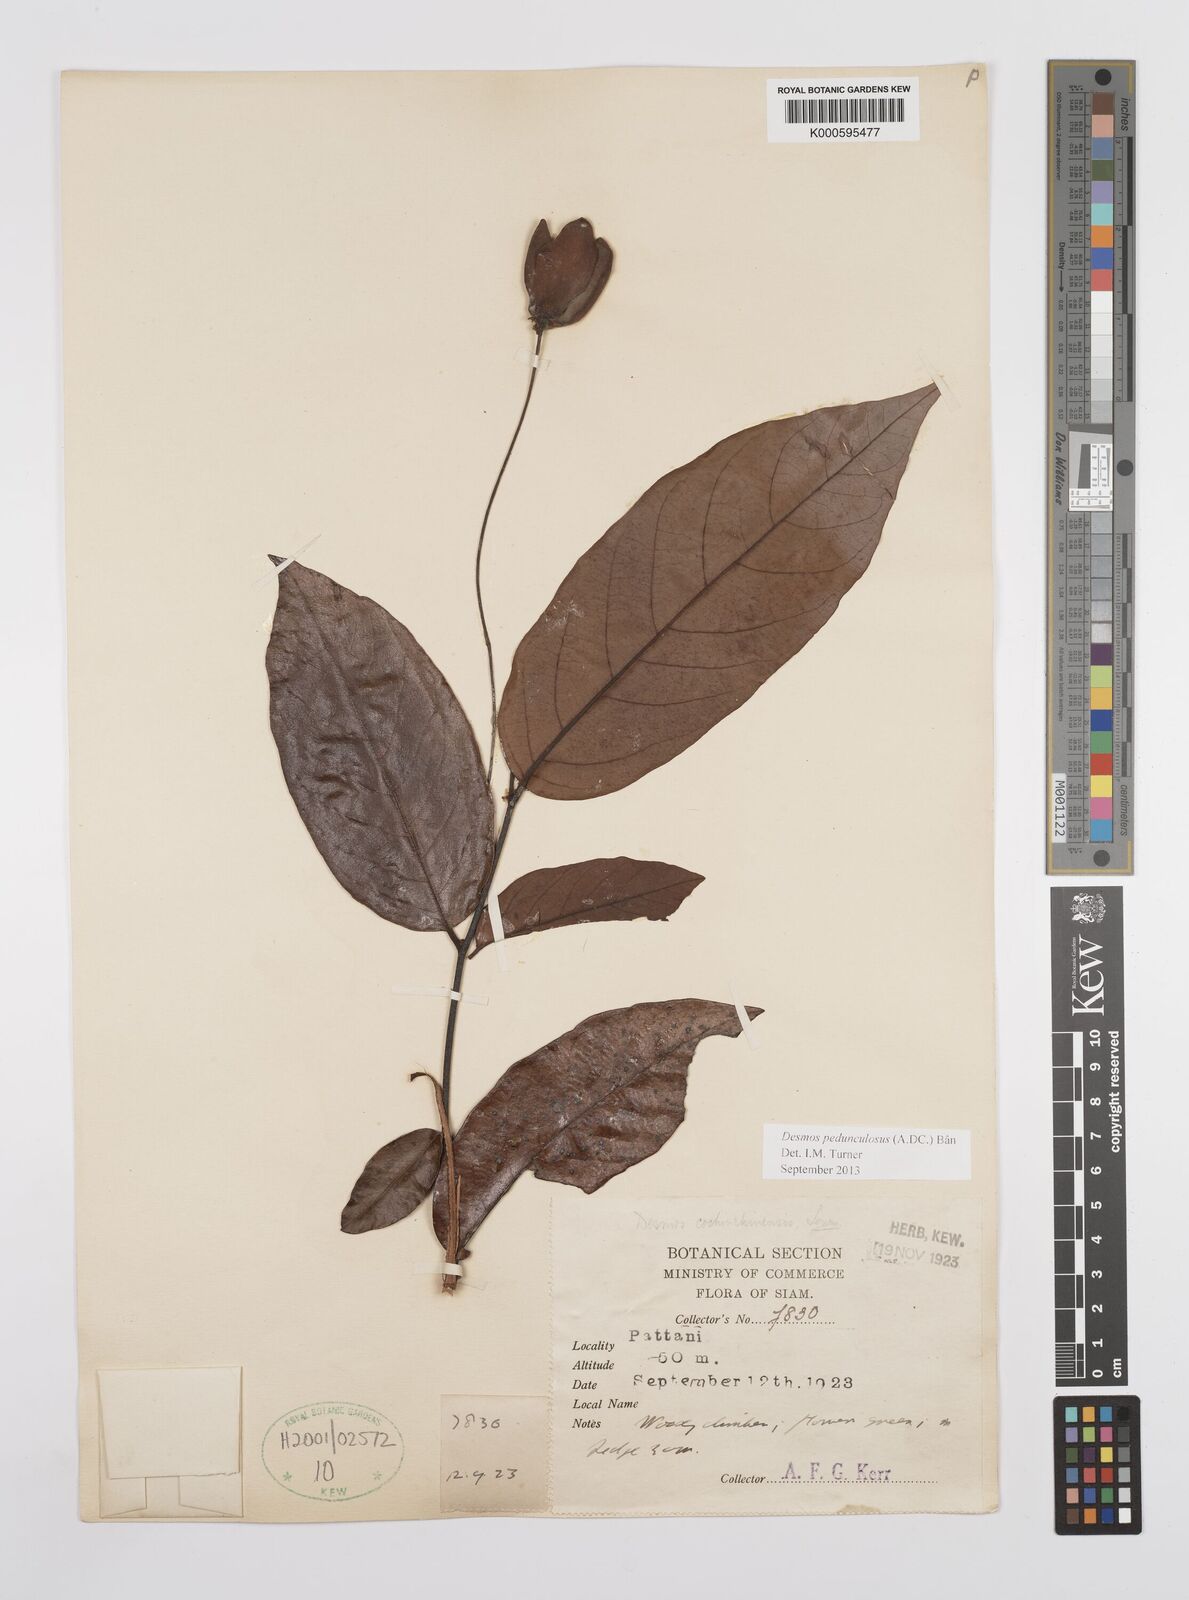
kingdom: Plantae
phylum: Tracheophyta
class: Magnoliopsida
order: Magnoliales
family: Annonaceae
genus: Desmos
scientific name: Desmos cochinchinensis
